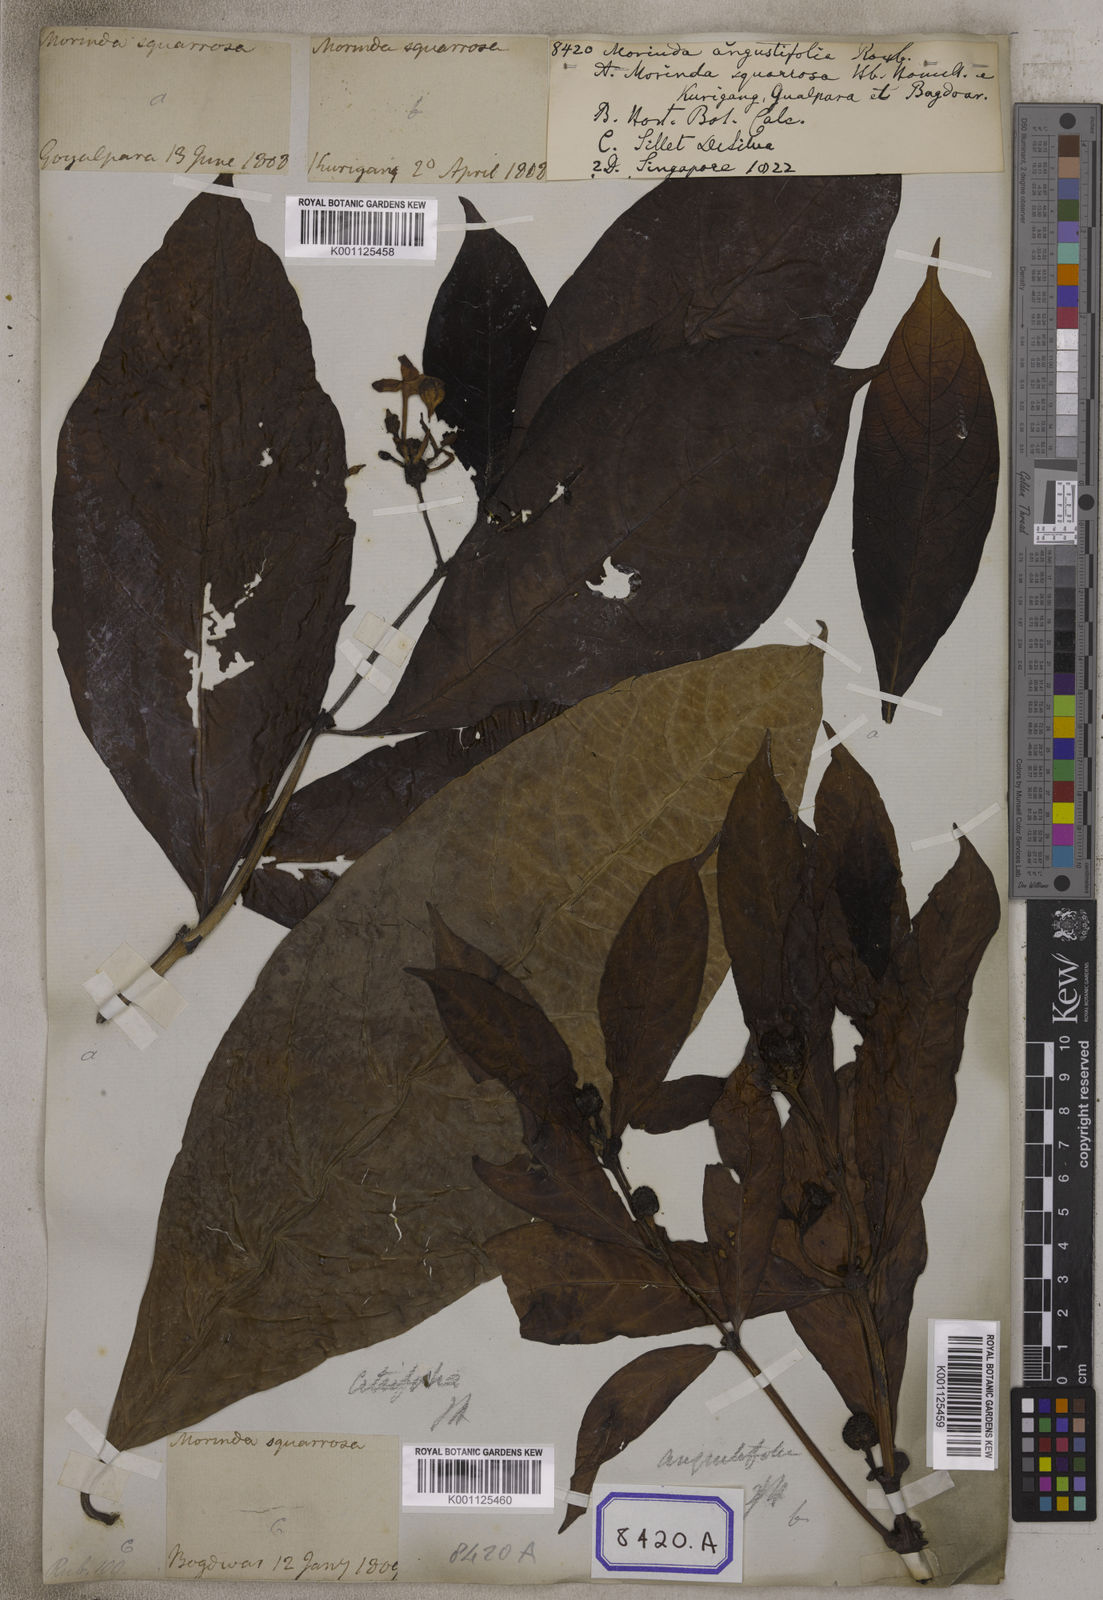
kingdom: Plantae
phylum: Tracheophyta
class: Magnoliopsida
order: Gentianales
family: Rubiaceae
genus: Morinda
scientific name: Morinda angustifolia
